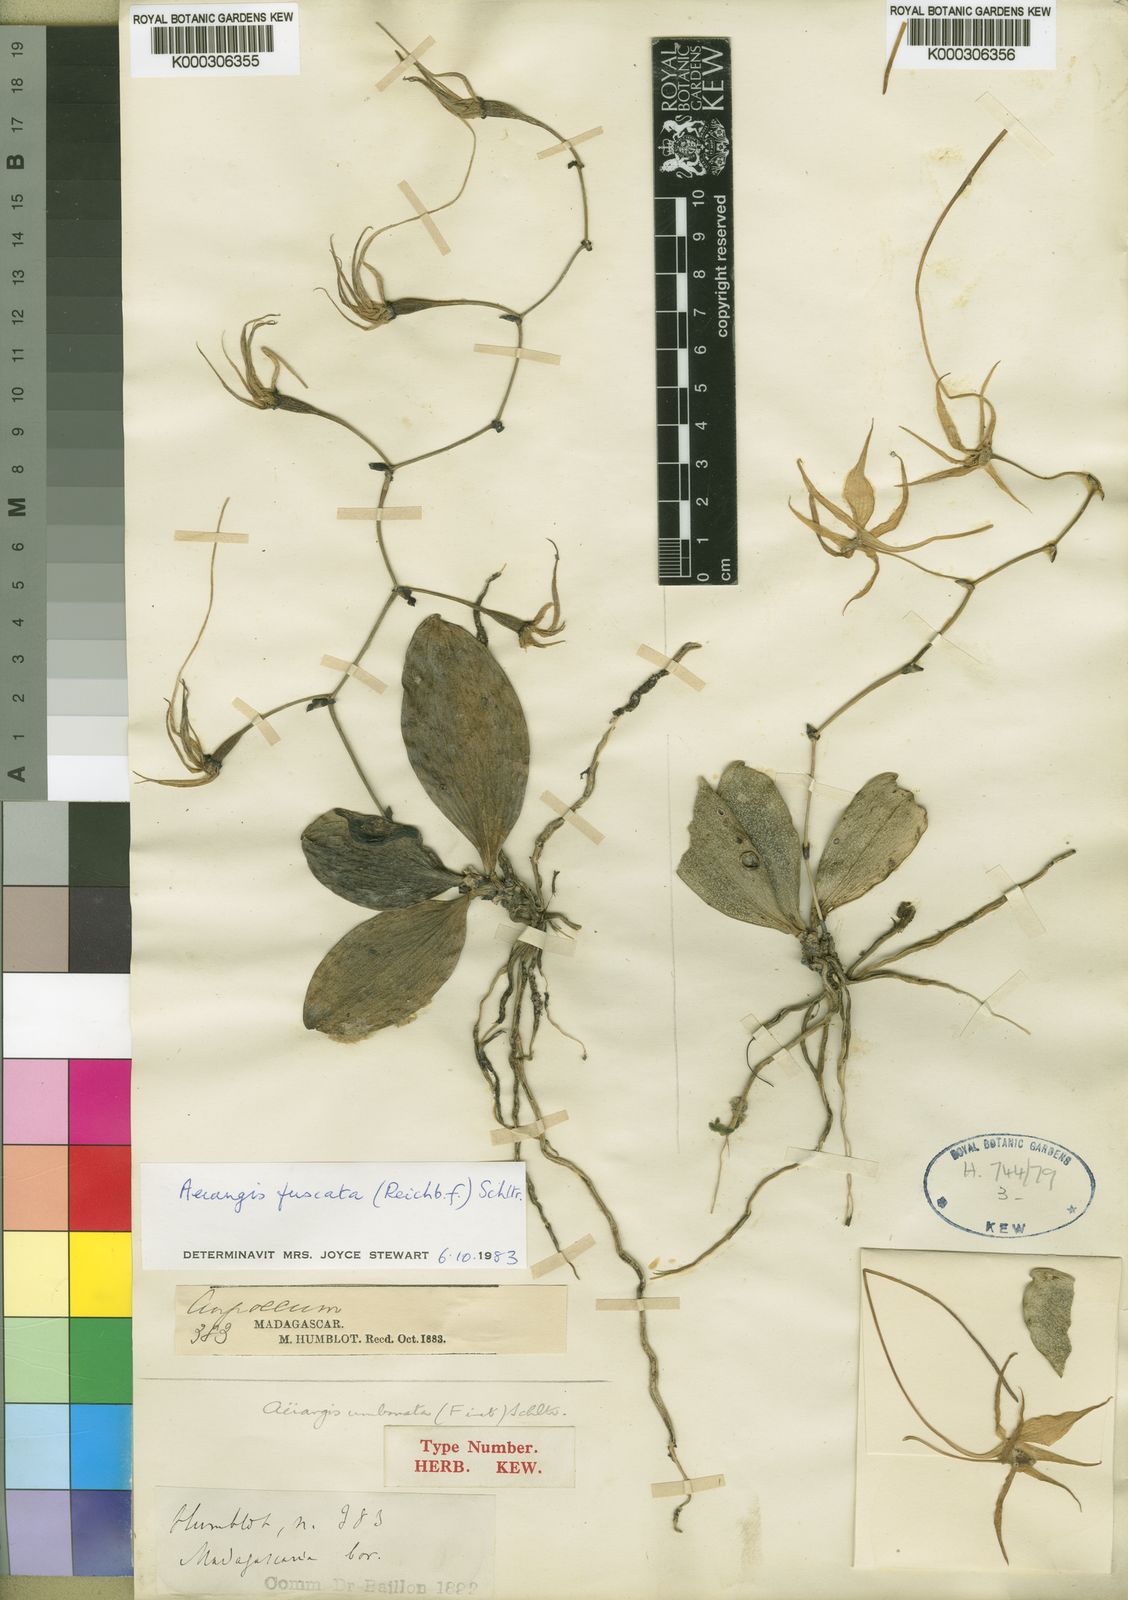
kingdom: Plantae
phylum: Tracheophyta
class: Liliopsida
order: Asparagales
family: Orchidaceae
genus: Aerangis
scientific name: Aerangis fuscata
